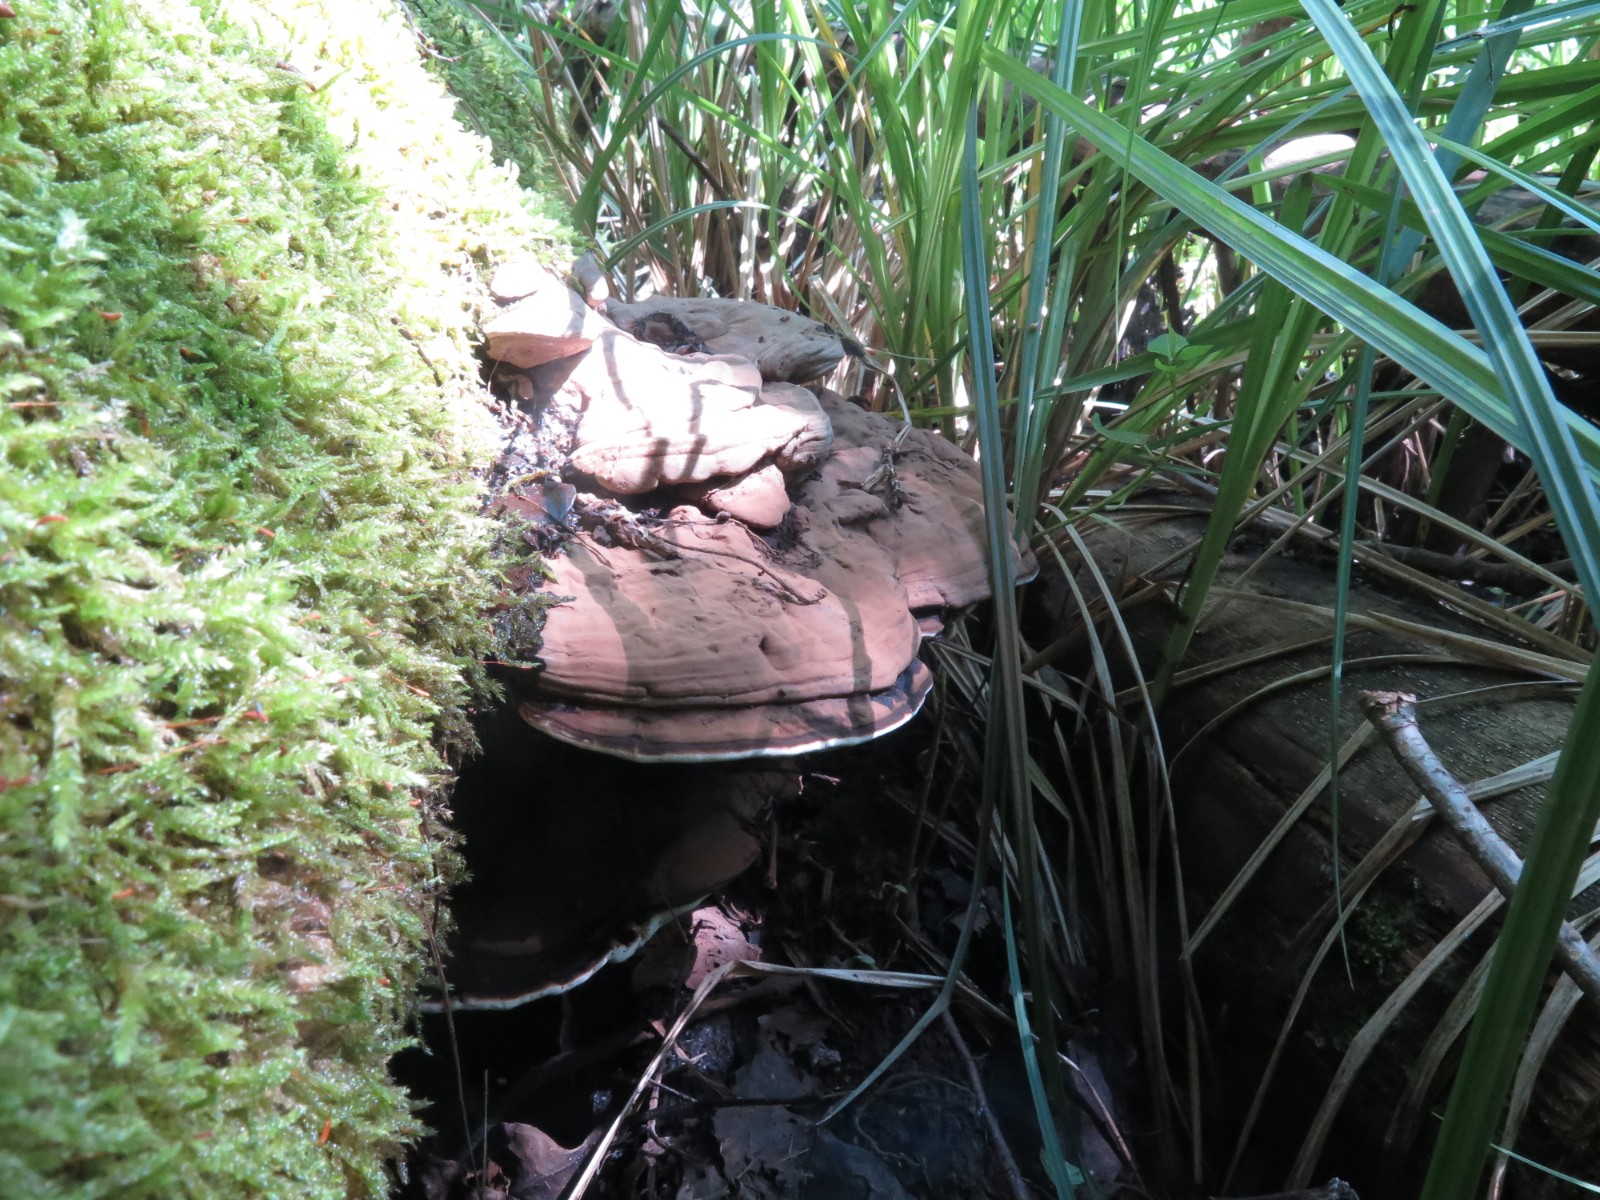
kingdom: Fungi
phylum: Basidiomycota
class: Agaricomycetes
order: Polyporales
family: Polyporaceae
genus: Ganoderma
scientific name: Ganoderma applanatum
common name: flad lakporesvamp
